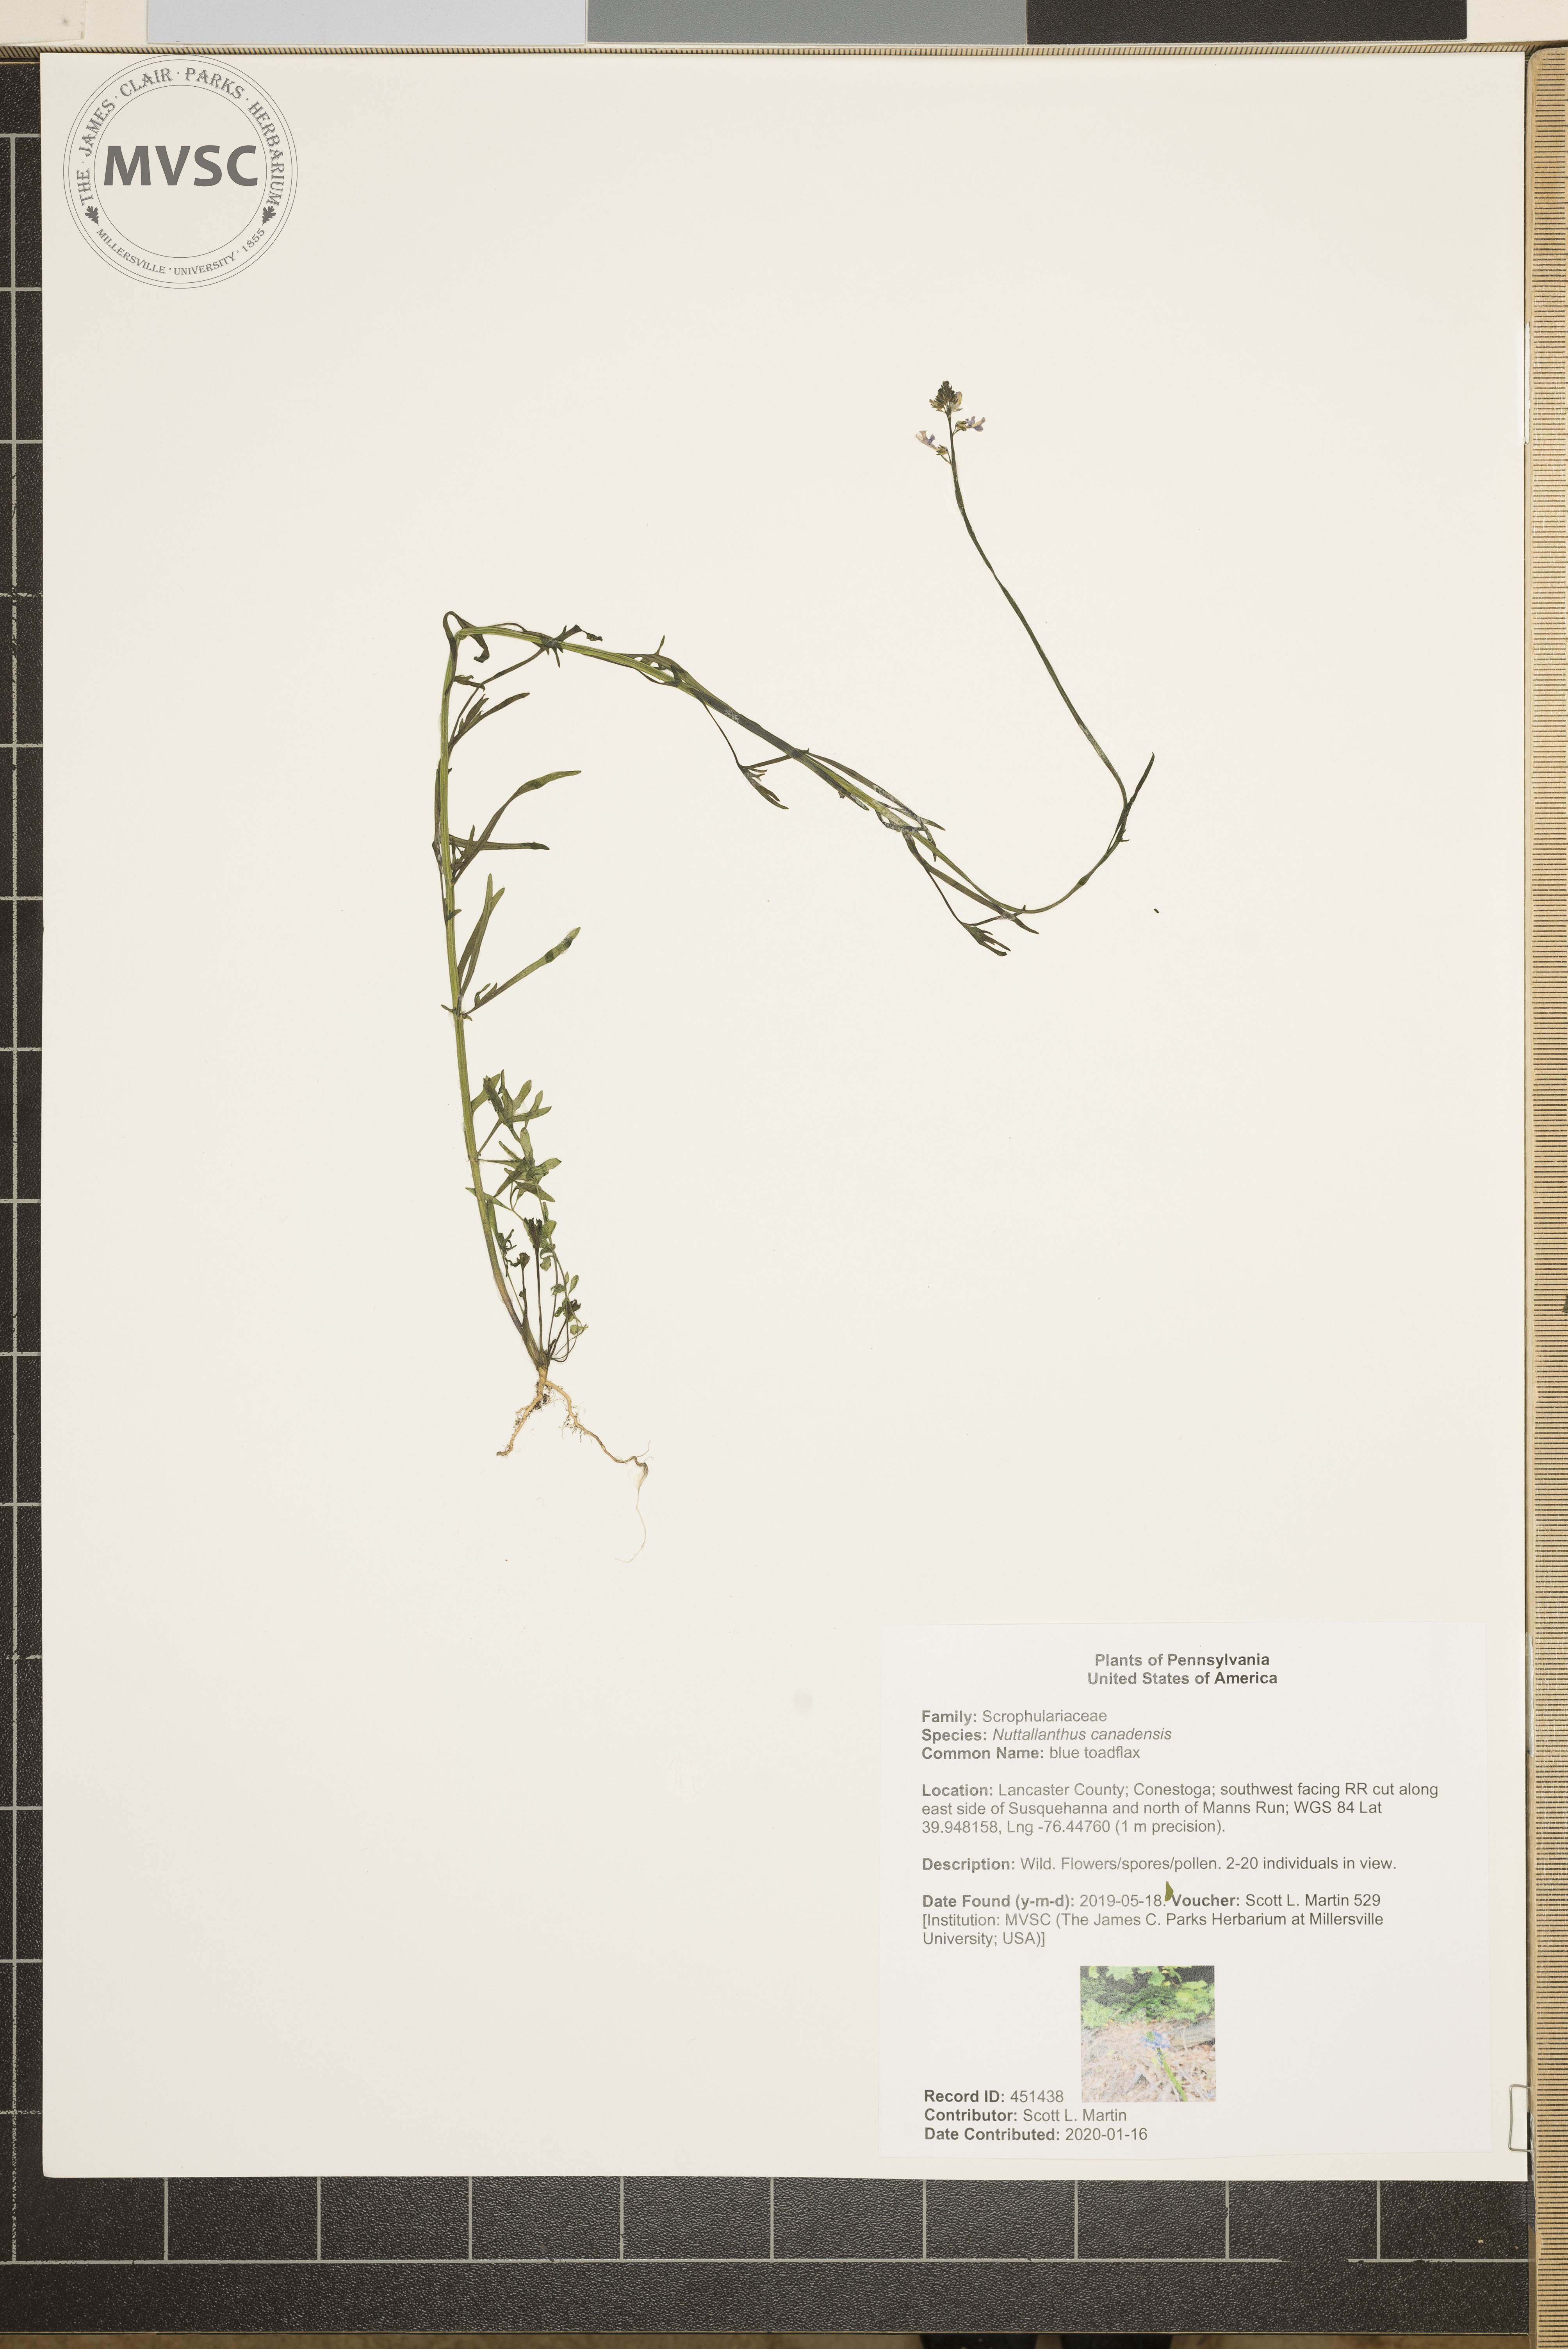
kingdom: Plantae
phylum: Tracheophyta
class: Magnoliopsida
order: Lamiales
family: Plantaginaceae
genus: Nuttallanthus
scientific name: Nuttallanthus canadensis
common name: blue toadflax
